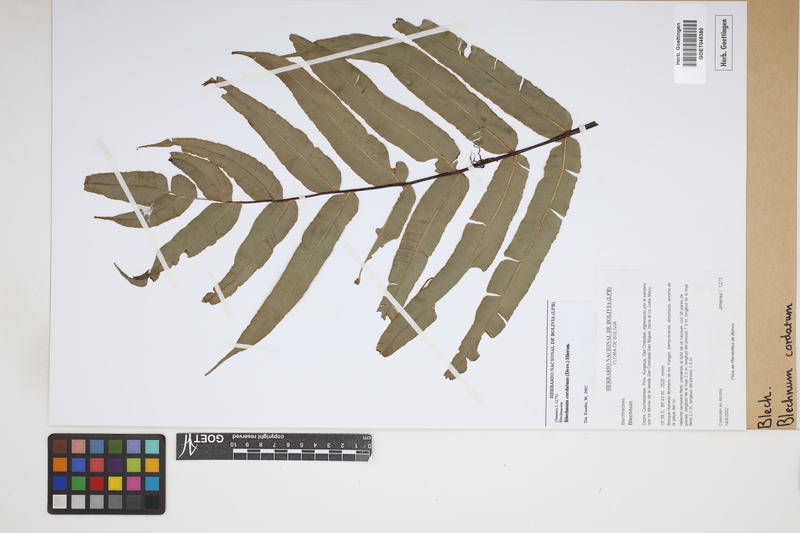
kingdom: Plantae
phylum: Tracheophyta
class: Polypodiopsida
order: Polypodiales
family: Blechnaceae
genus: Parablechnum
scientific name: Parablechnum cordatum
